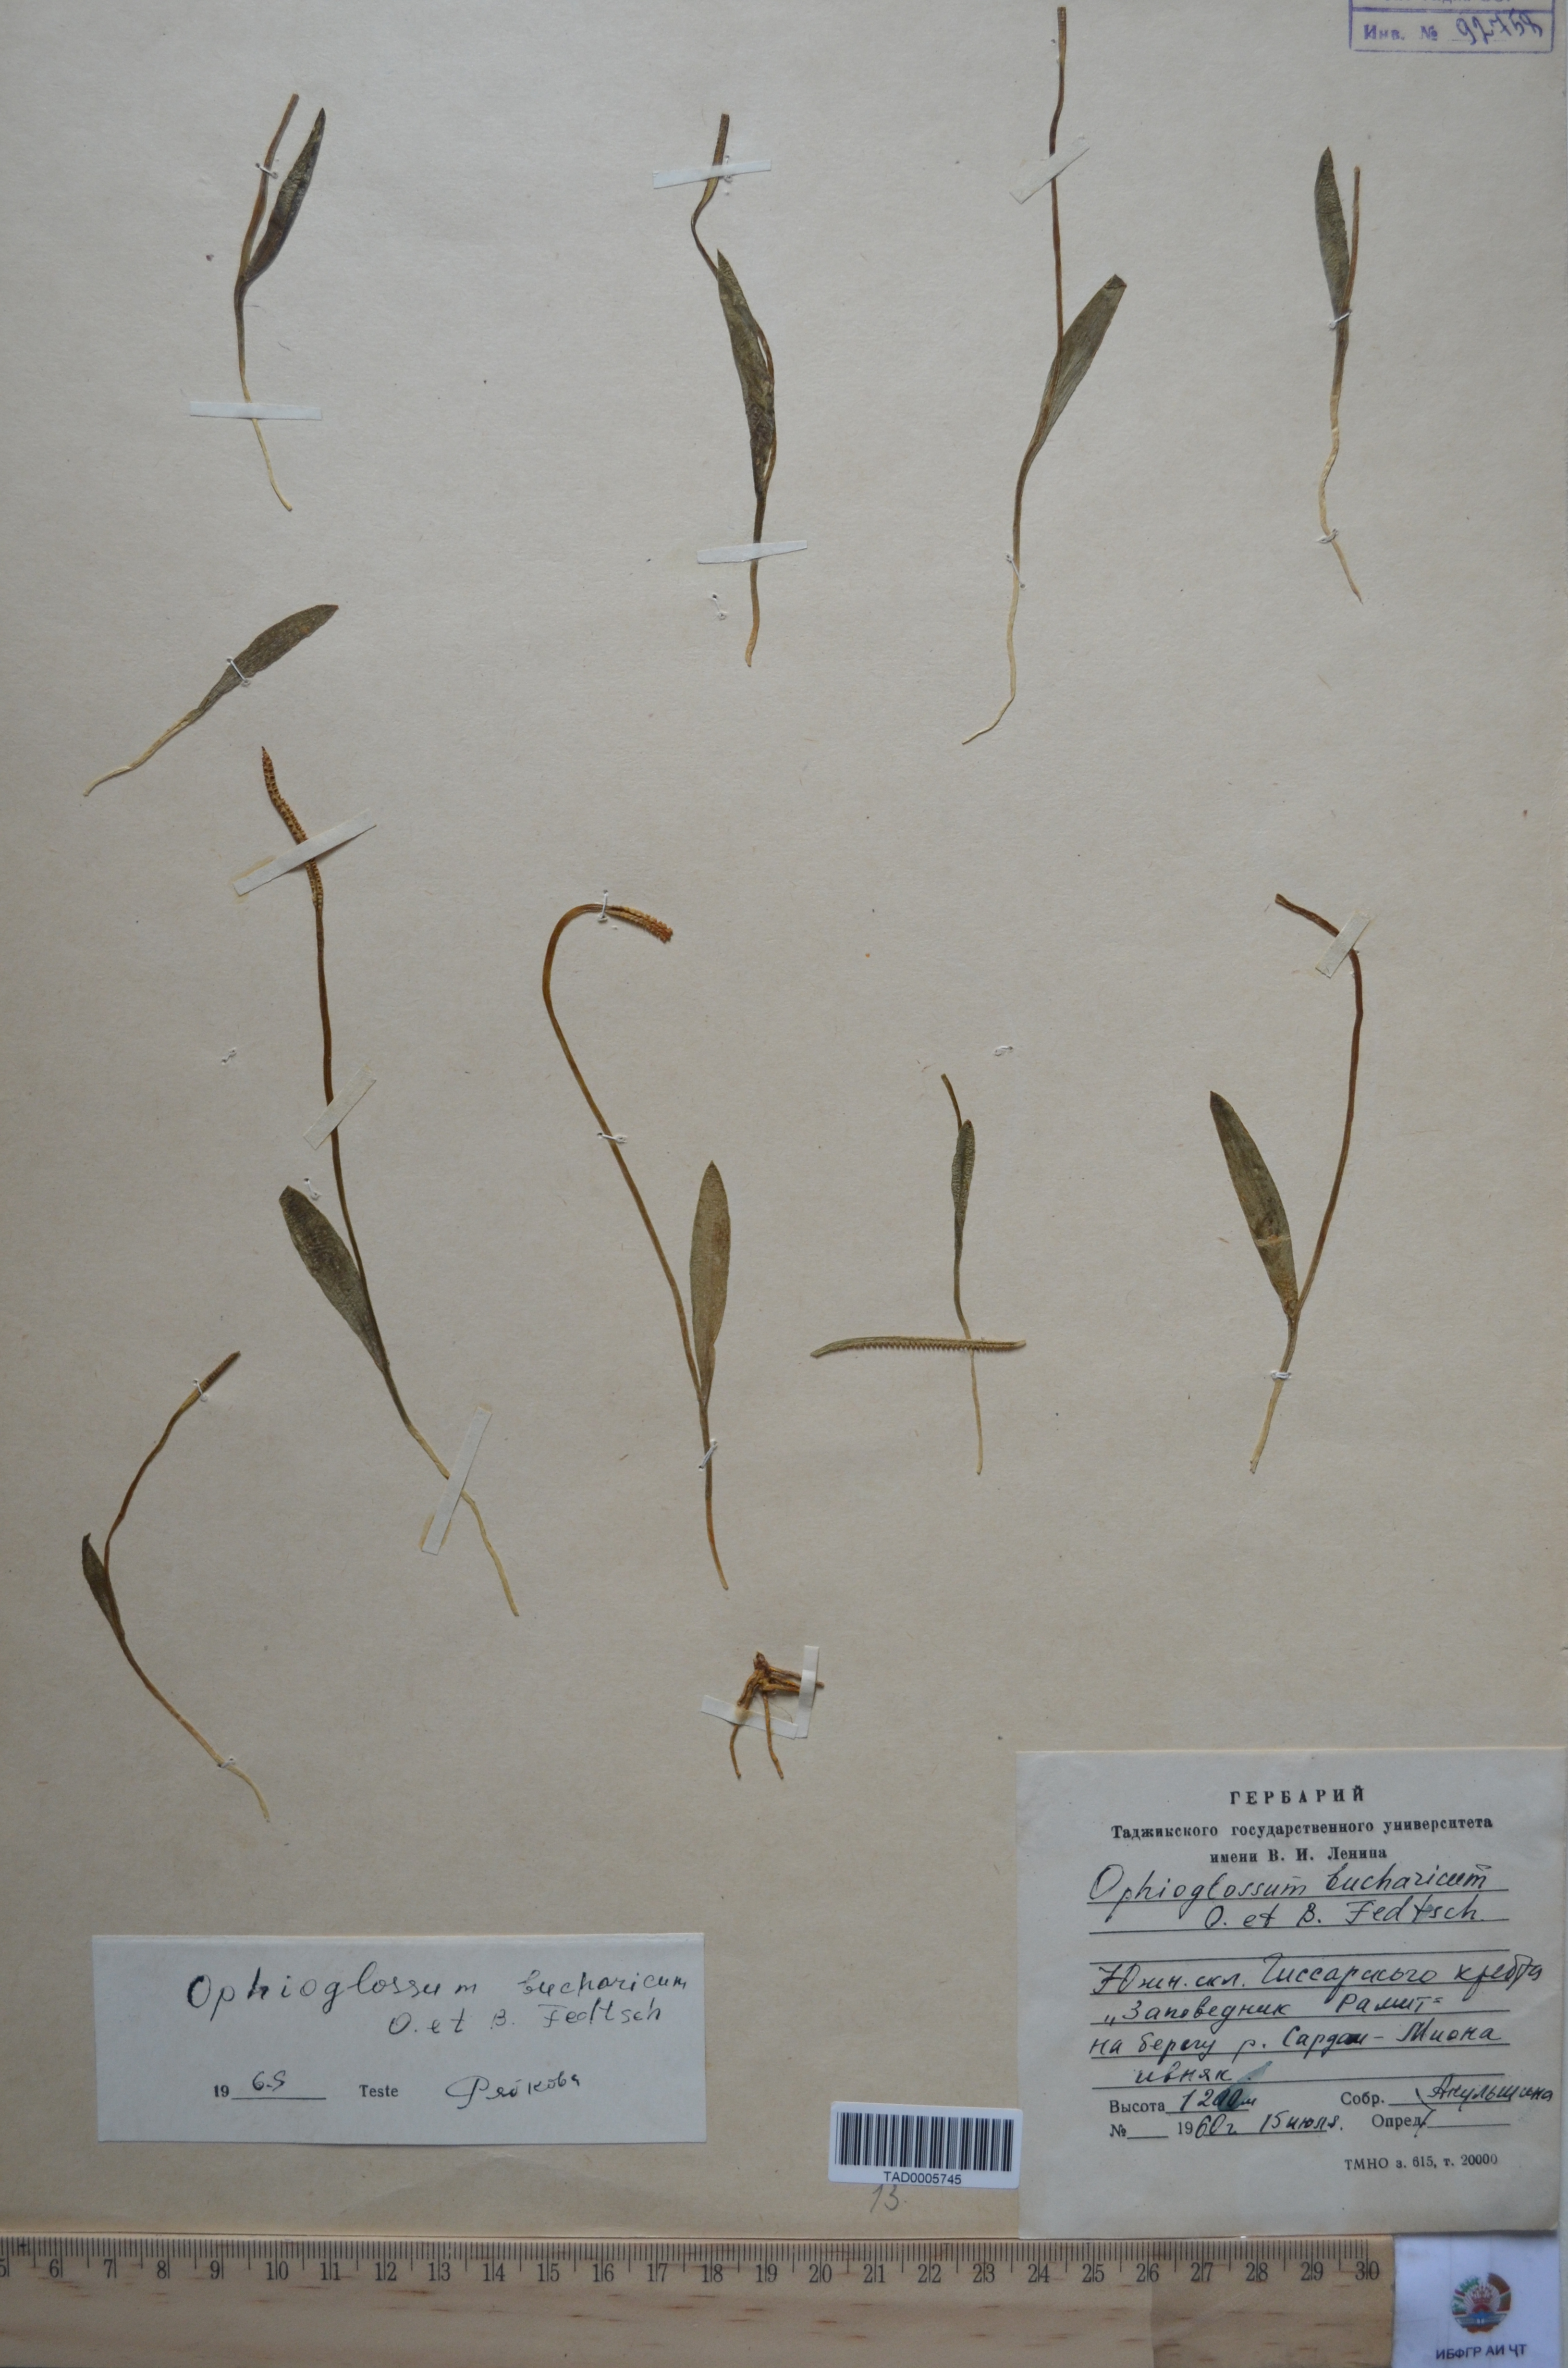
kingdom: Plantae
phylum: Tracheophyta
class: Polypodiopsida
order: Ophioglossales
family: Ophioglossaceae
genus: Ophioglossum
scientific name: Ophioglossum thermale
